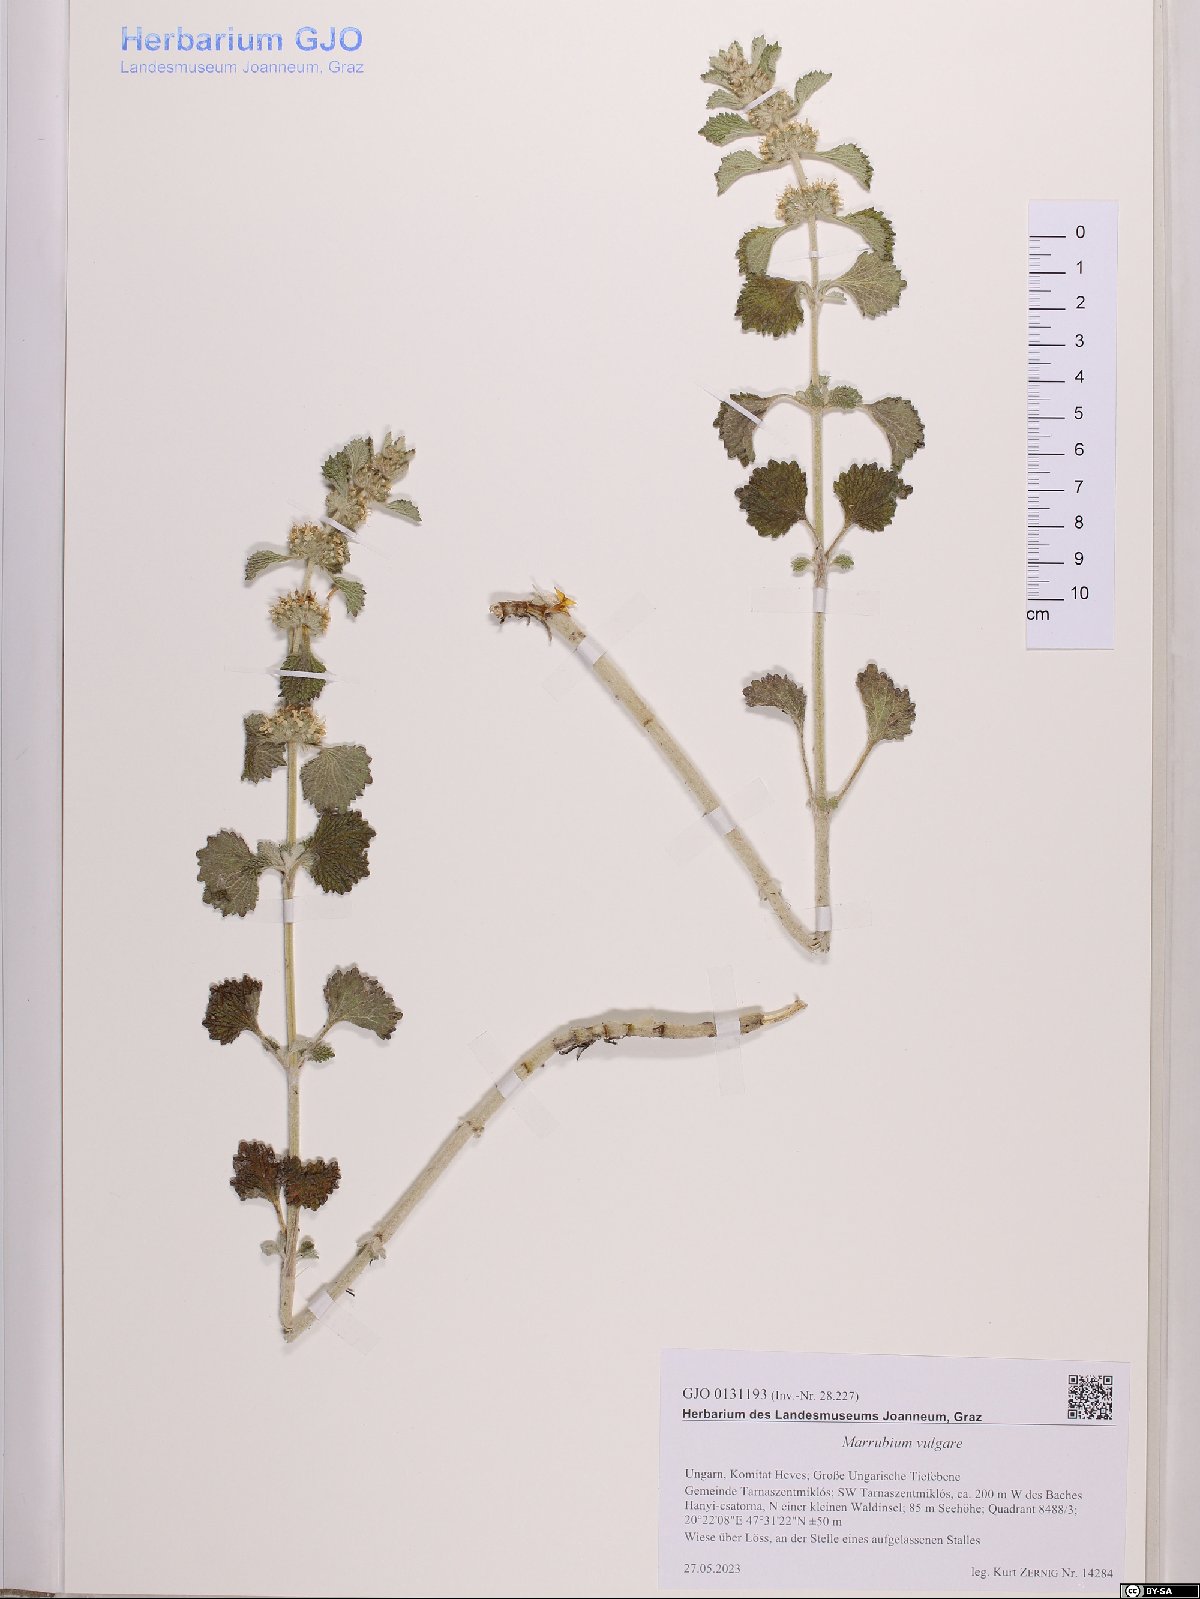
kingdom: Plantae
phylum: Tracheophyta
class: Magnoliopsida
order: Lamiales
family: Lamiaceae
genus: Marrubium
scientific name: Marrubium vulgare
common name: Horehound
